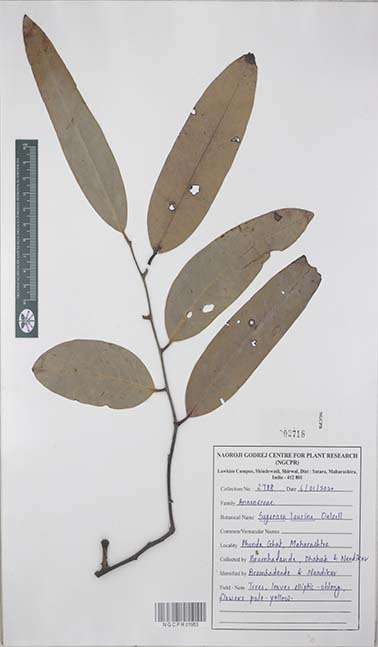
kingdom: Plantae
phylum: Tracheophyta
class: Magnoliopsida
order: Magnoliales
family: Annonaceae
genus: Sageraea
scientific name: Sageraea laurina
